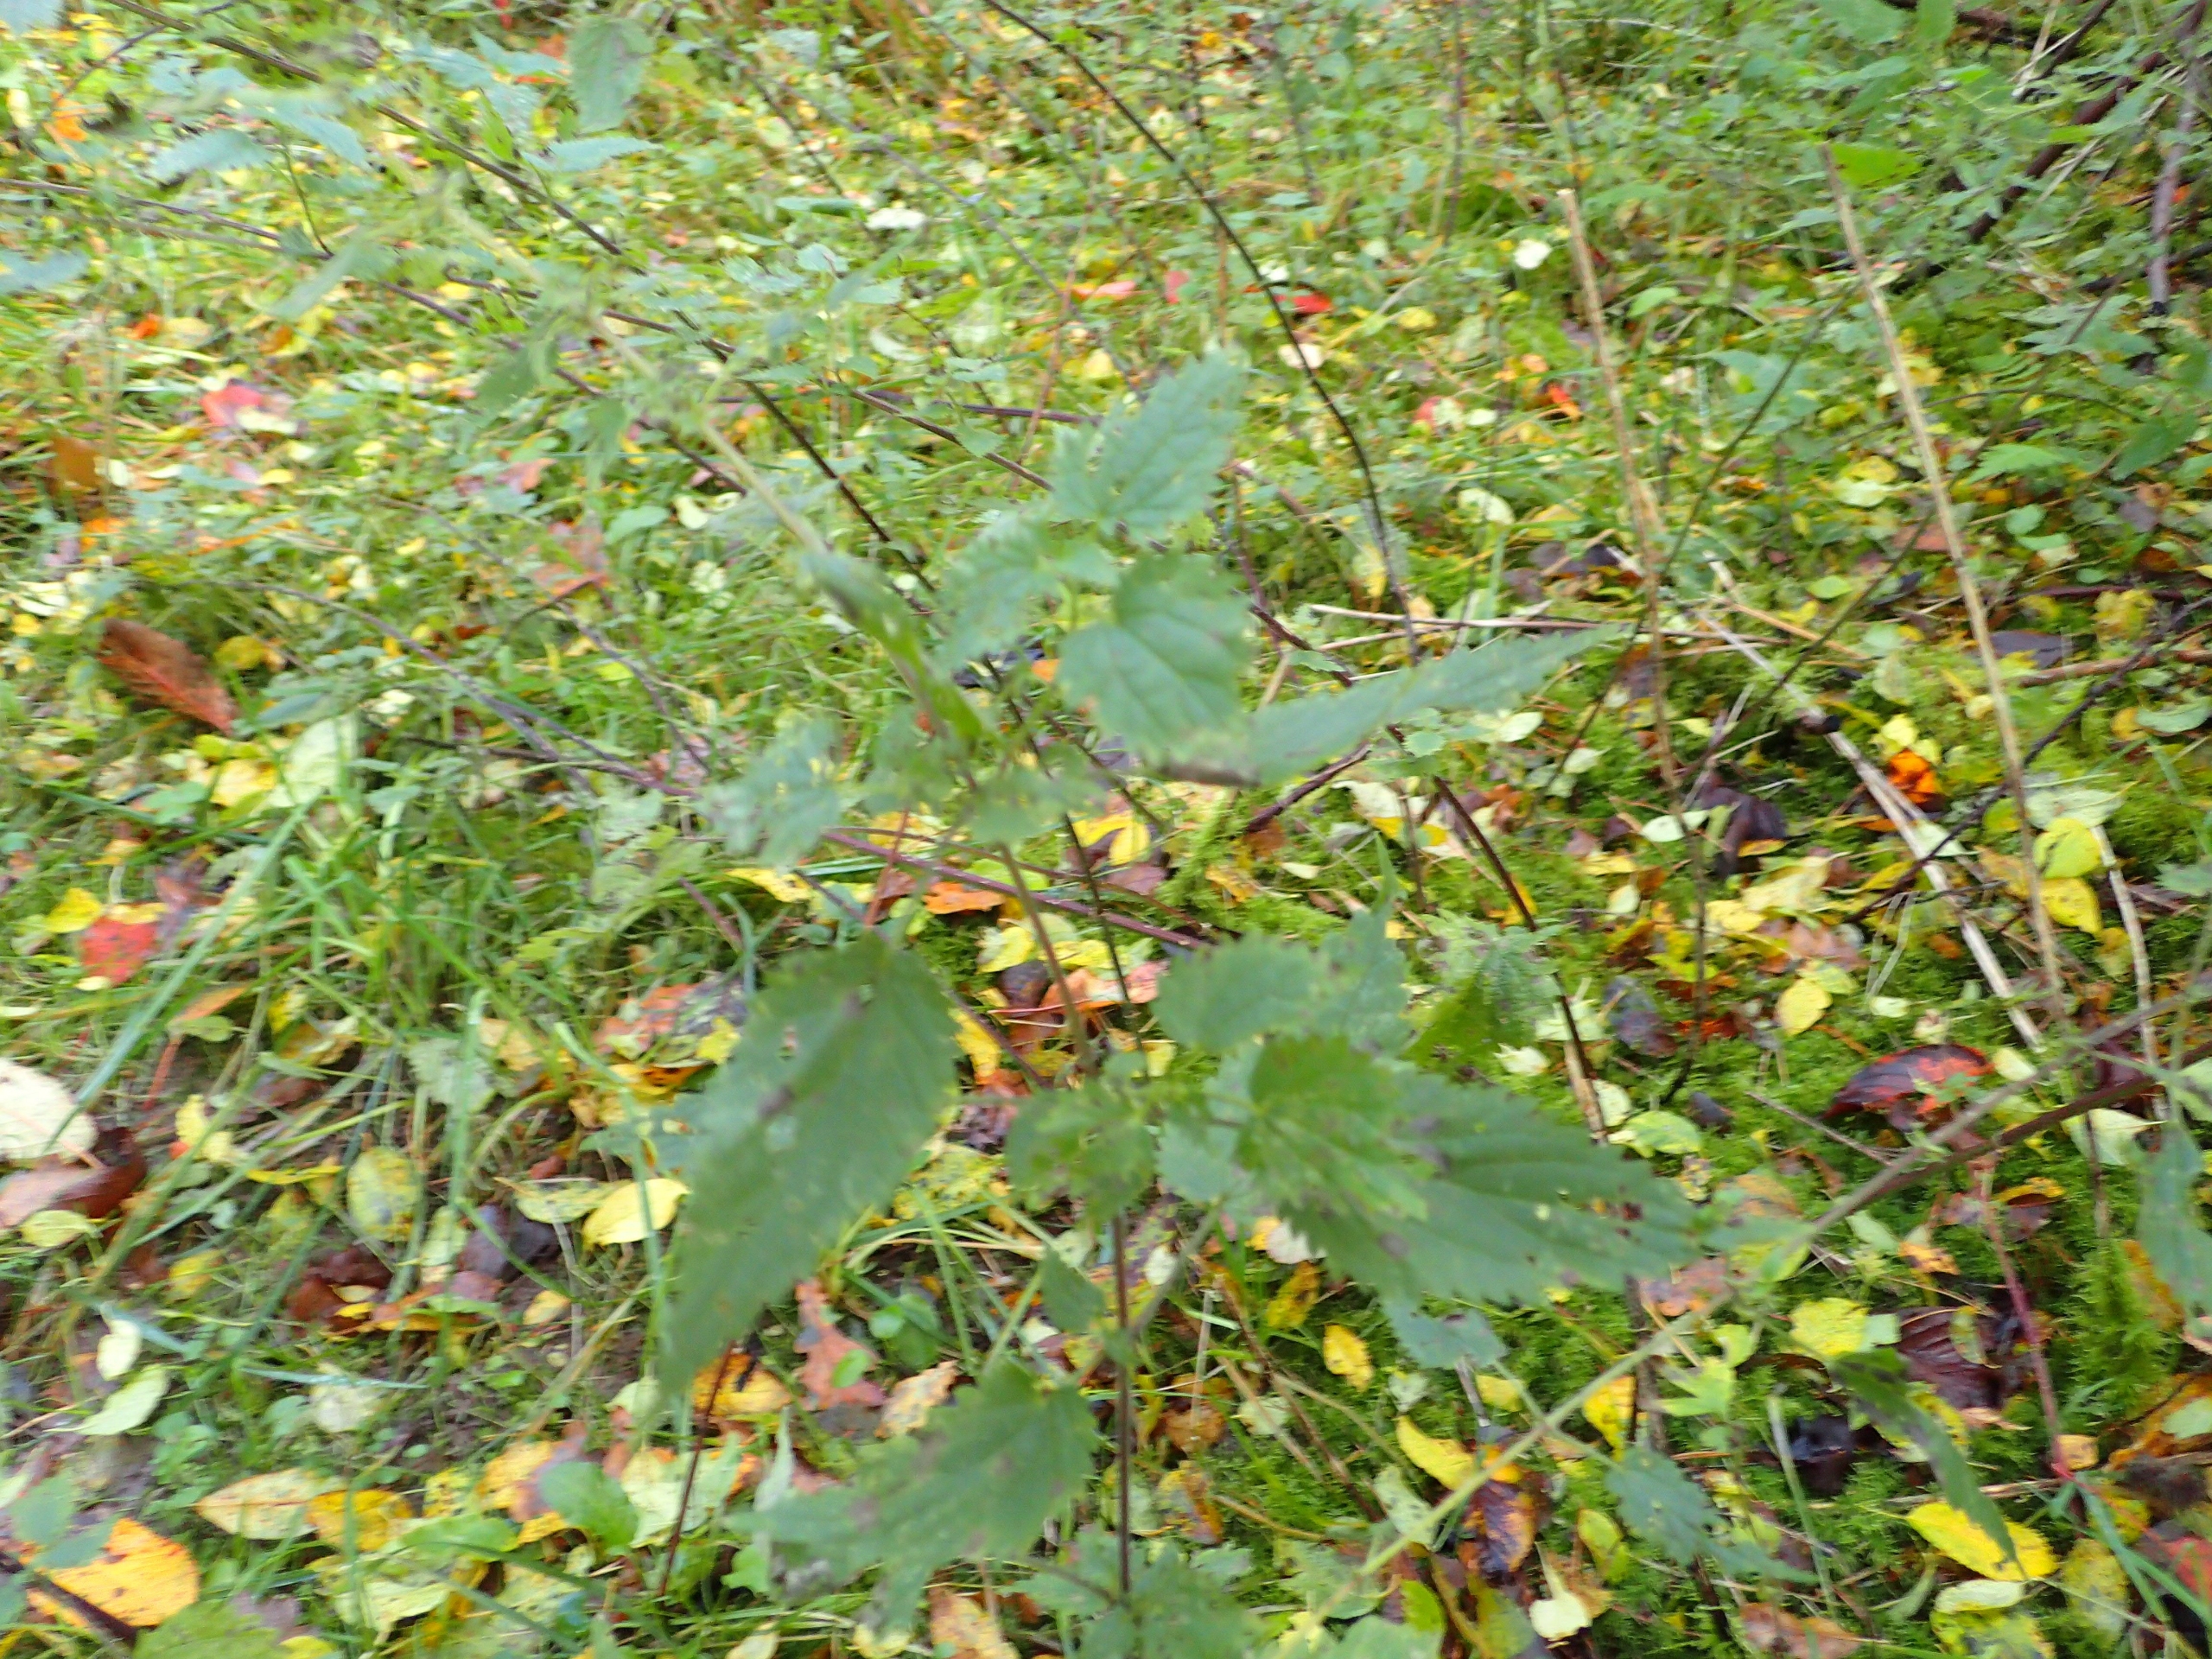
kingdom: Plantae
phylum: Tracheophyta
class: Magnoliopsida
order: Rosales
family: Urticaceae
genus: Urtica
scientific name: Urtica dioica
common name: Stor nælde
